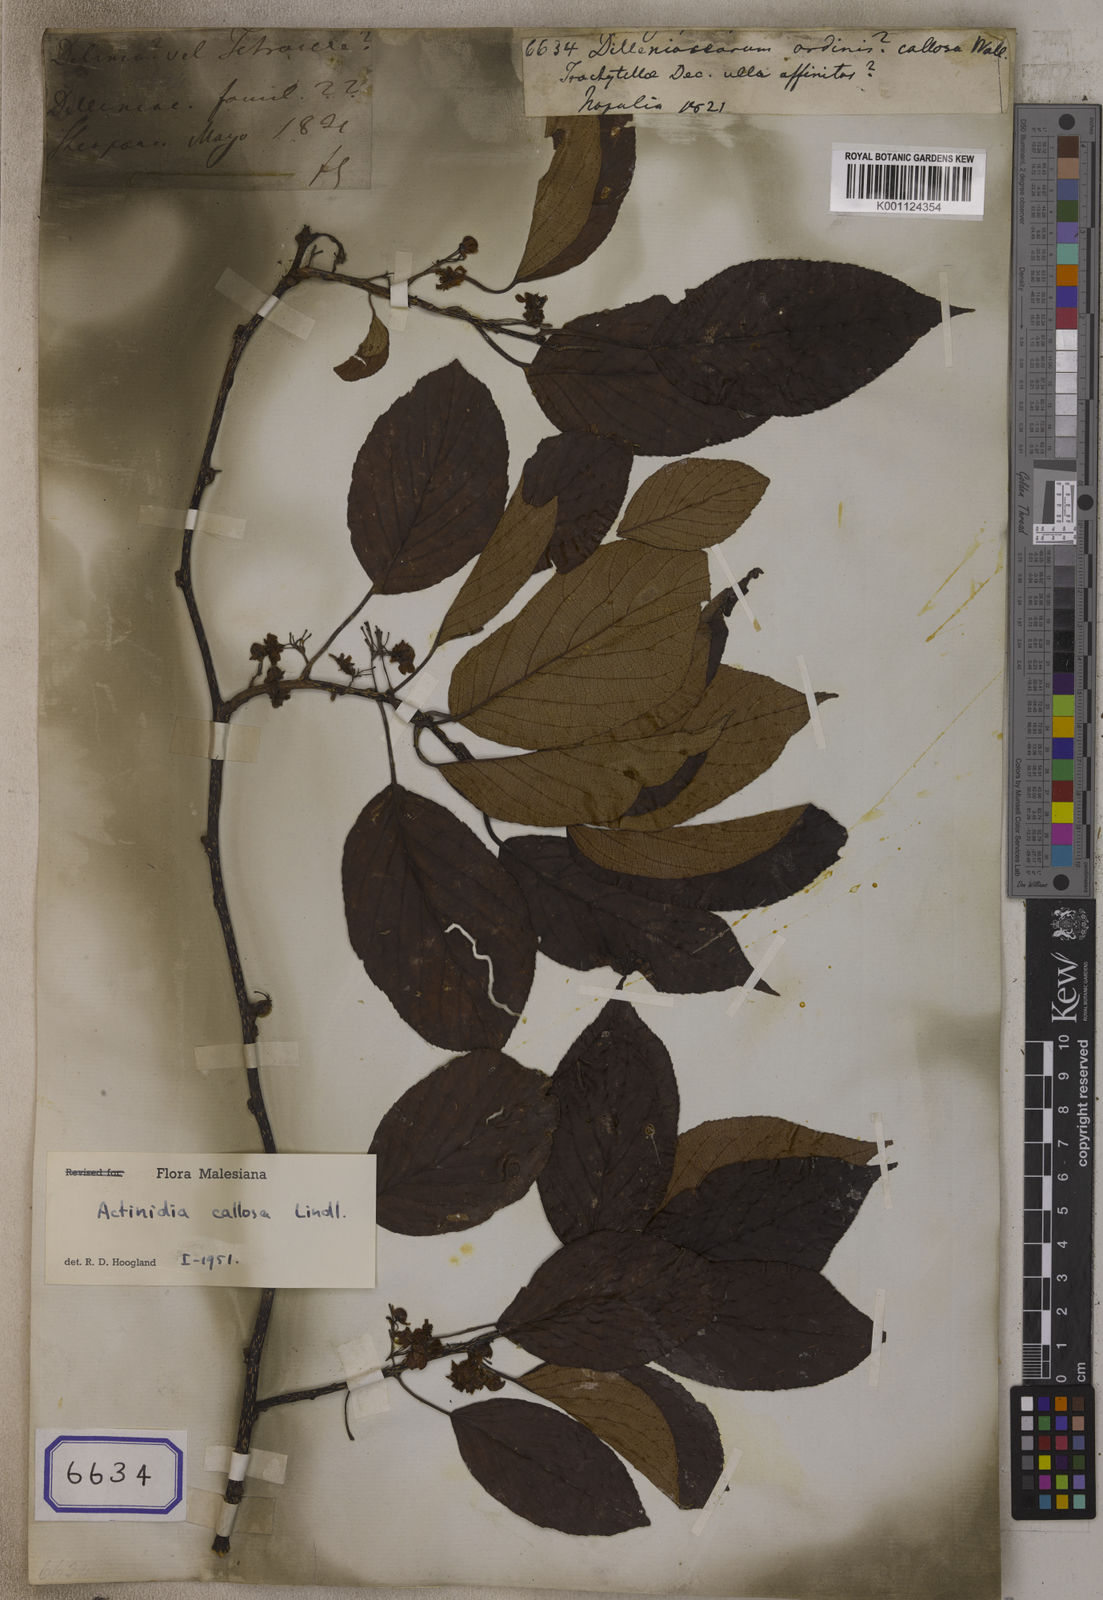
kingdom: Plantae
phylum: Tracheophyta
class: Magnoliopsida
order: Dilleniales
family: Dilleniaceae
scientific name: Dilleniaceae
